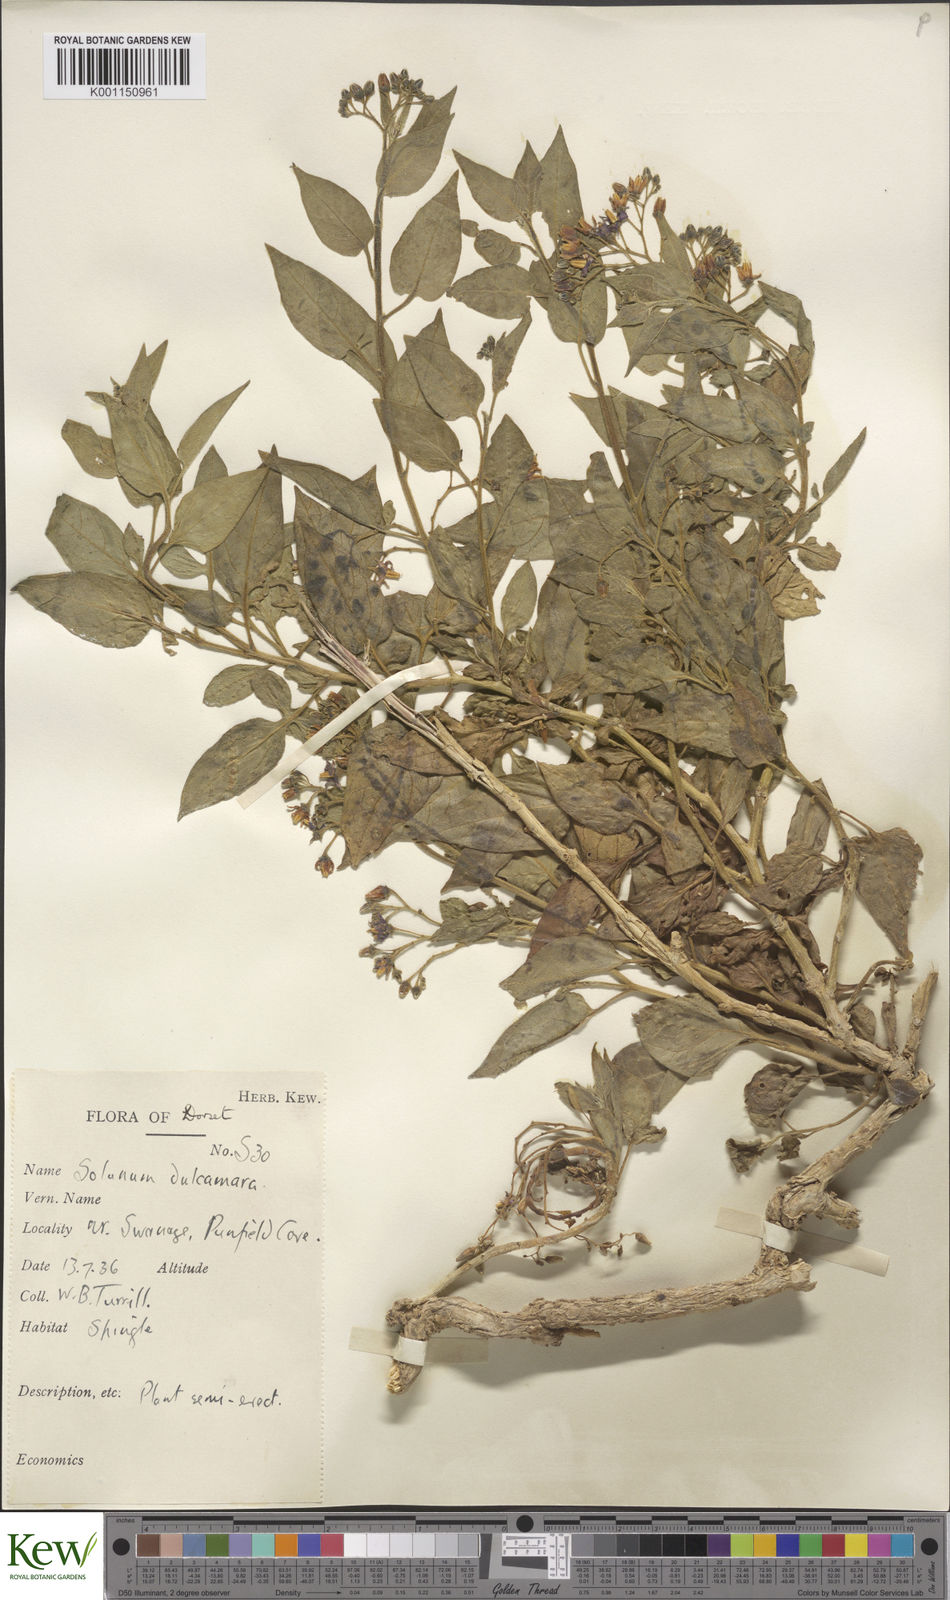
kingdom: Plantae
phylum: Tracheophyta
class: Magnoliopsida
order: Solanales
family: Solanaceae
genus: Solanum
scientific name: Solanum dulcamara
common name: Climbing nightshade
